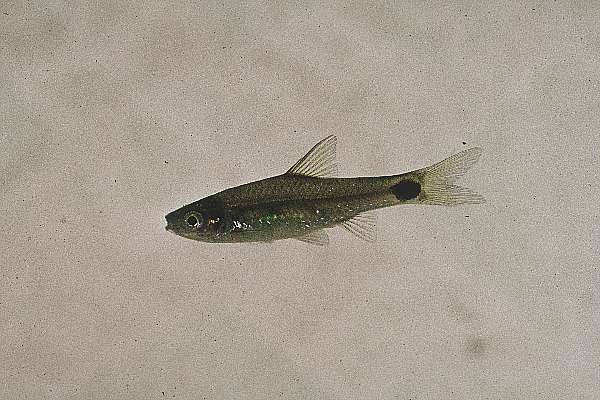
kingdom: Animalia
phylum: Chordata
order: Cypriniformes
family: Cyprinidae
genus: Enteromius
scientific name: Enteromius afrovernayi
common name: Spottail barb
